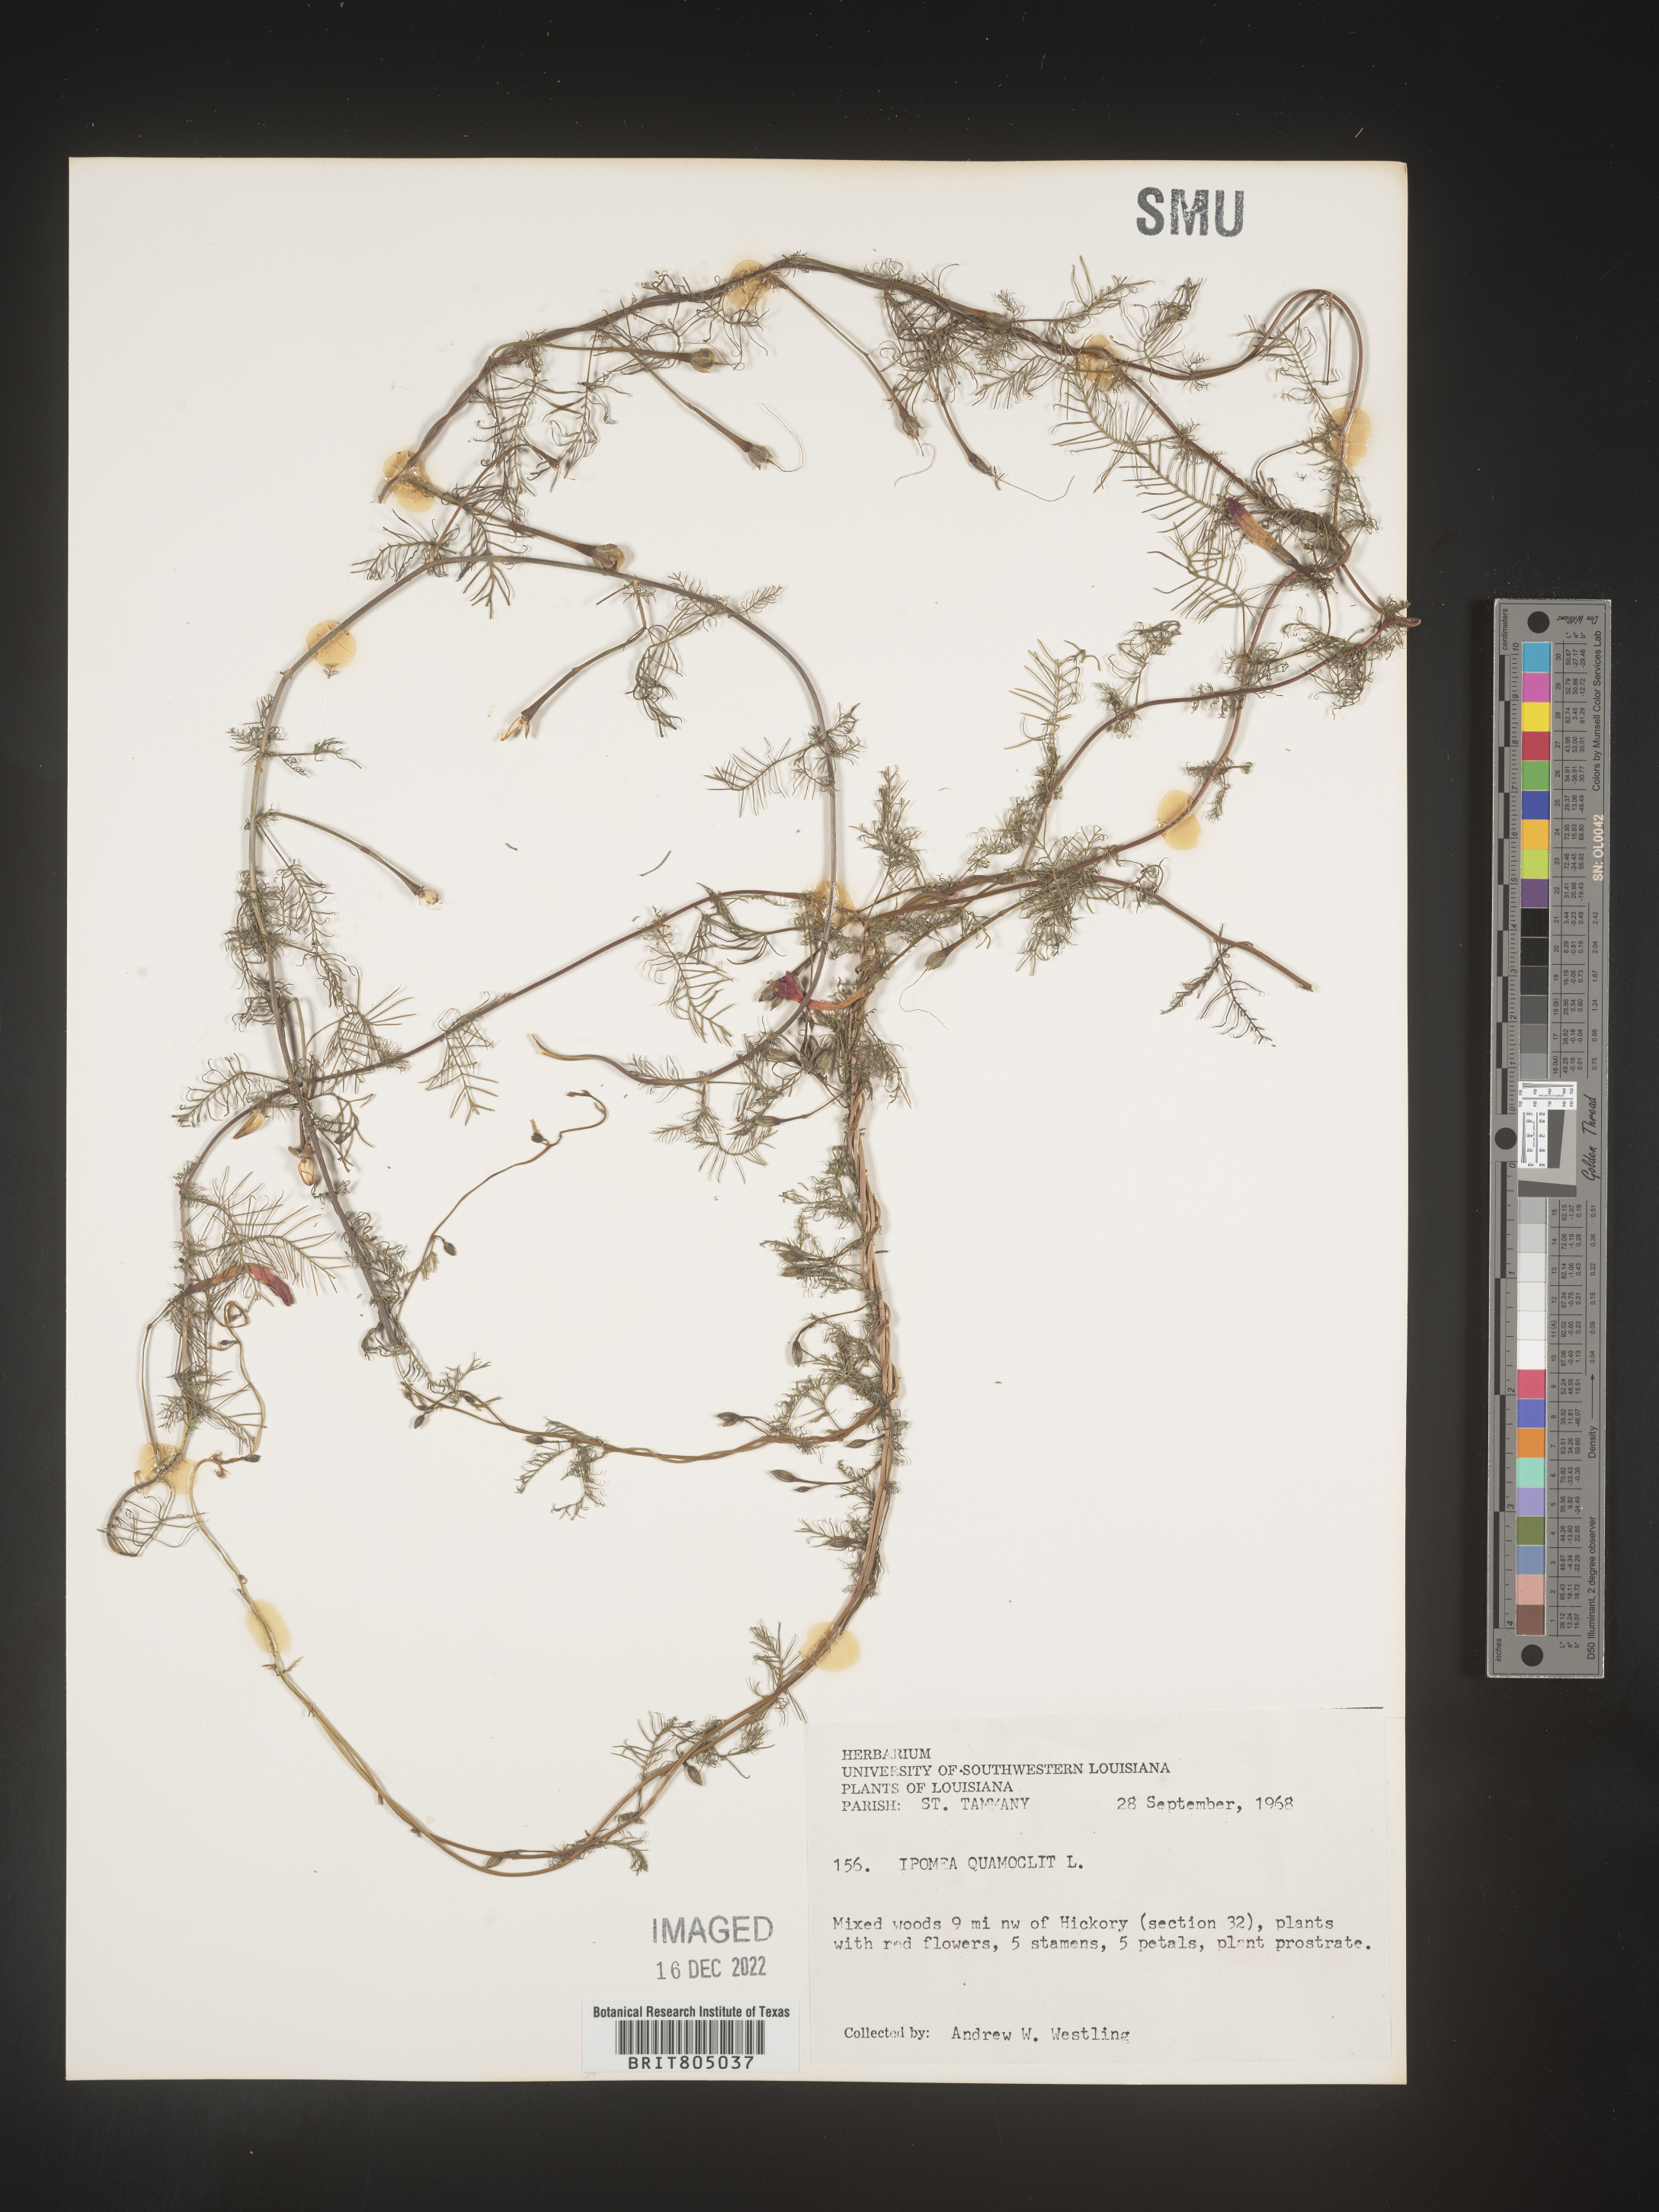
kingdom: Plantae
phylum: Tracheophyta
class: Magnoliopsida
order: Solanales
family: Convolvulaceae
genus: Ipomoea
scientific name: Ipomoea quamoclit
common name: Cypress vine
